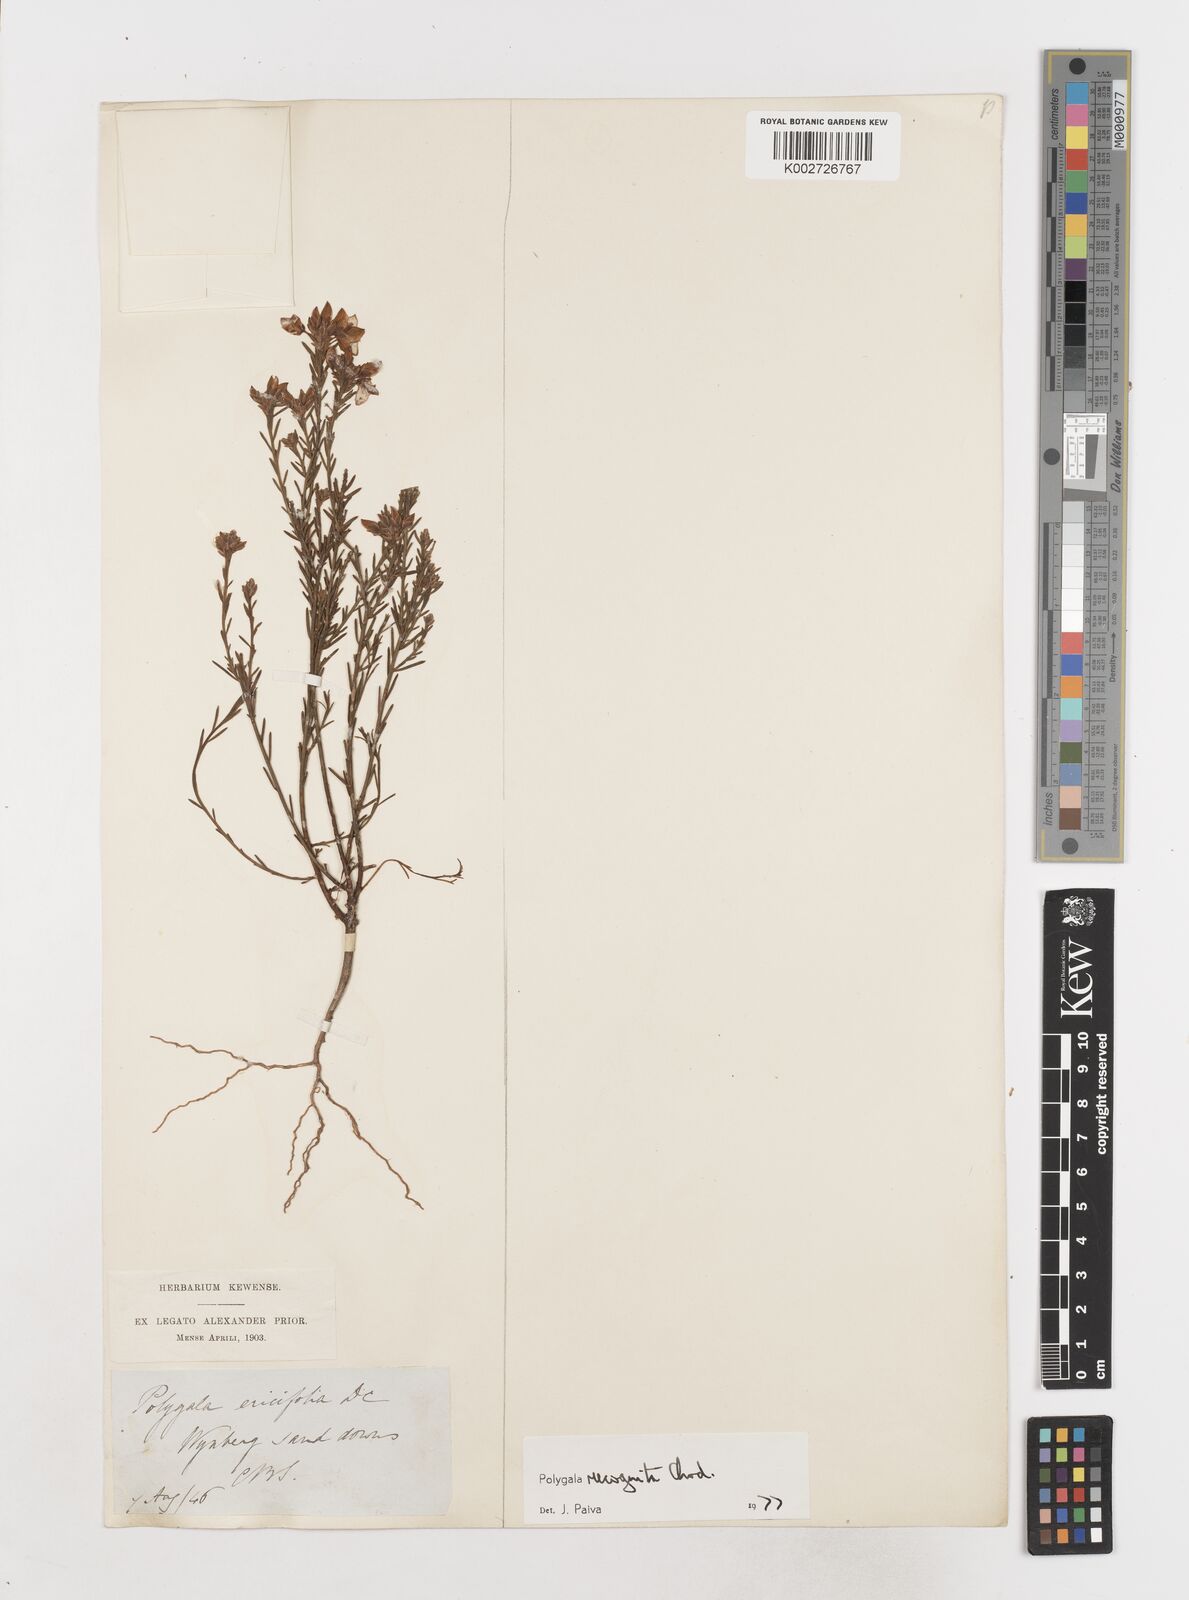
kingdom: Plantae
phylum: Tracheophyta
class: Magnoliopsida
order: Fabales
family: Polygalaceae
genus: Polygala
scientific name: Polygala recognita
